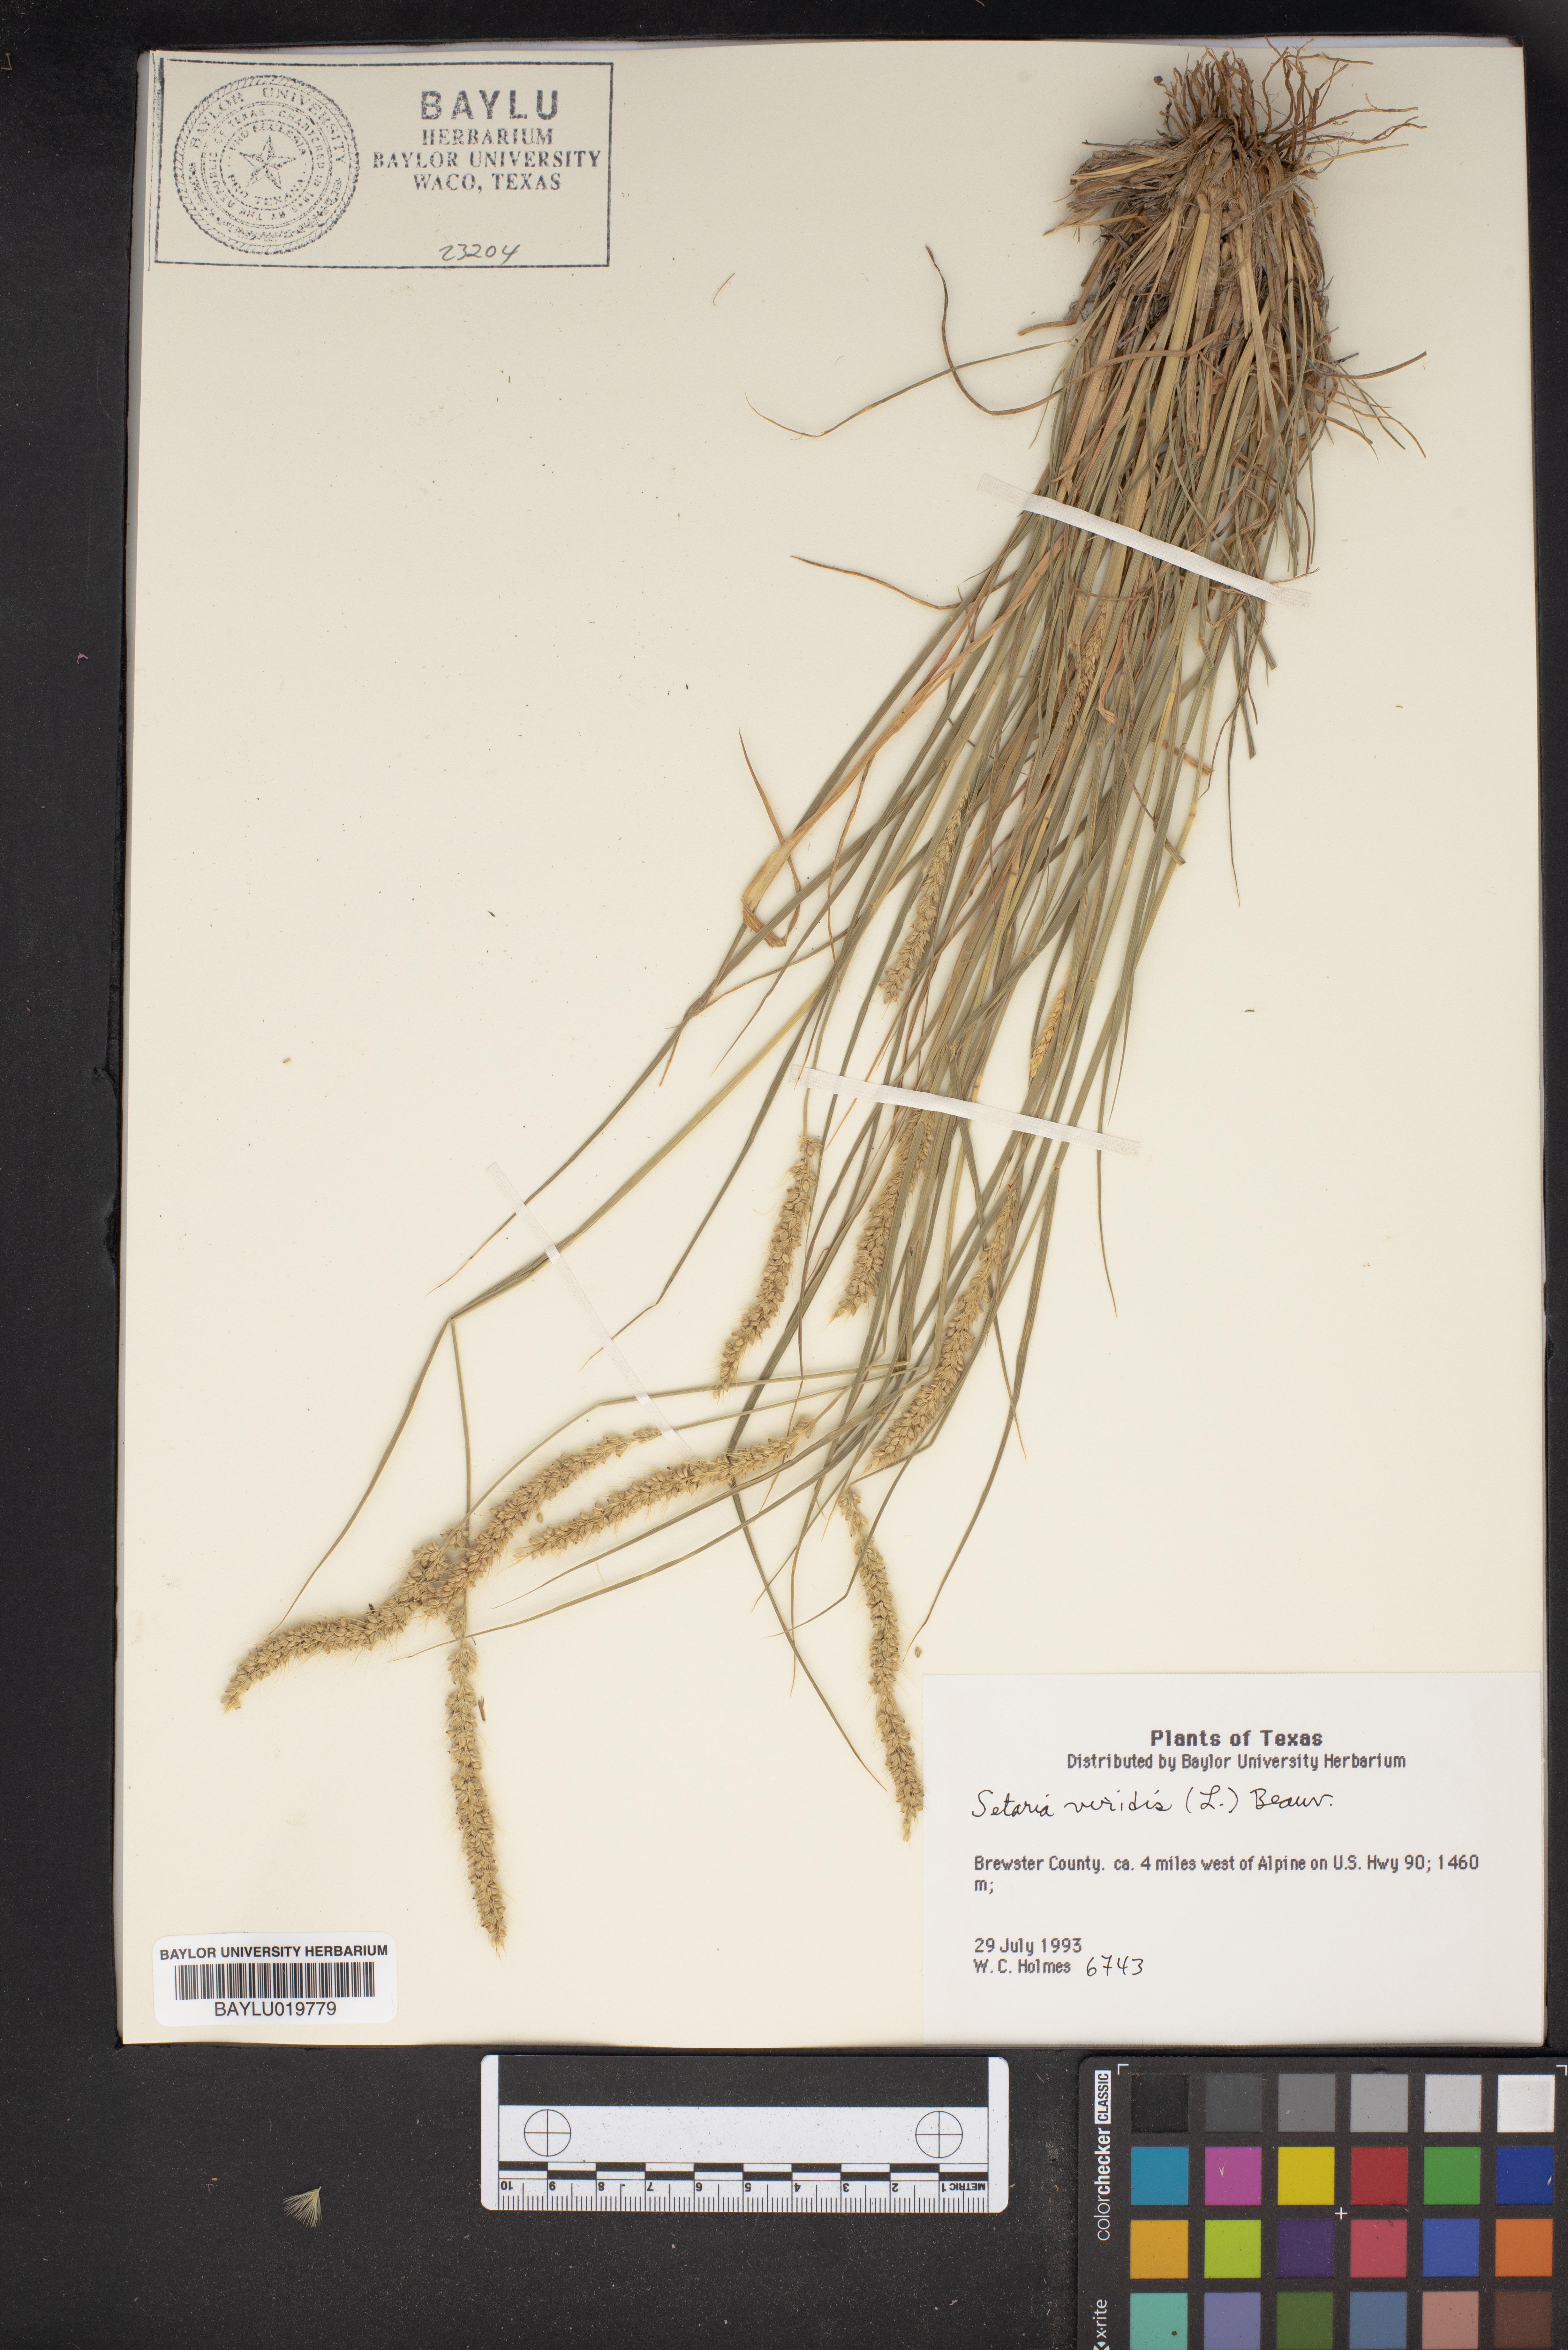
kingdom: Plantae
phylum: Tracheophyta
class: Liliopsida
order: Poales
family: Poaceae
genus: Setaria
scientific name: Setaria viridis
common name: Green bristlegrass
